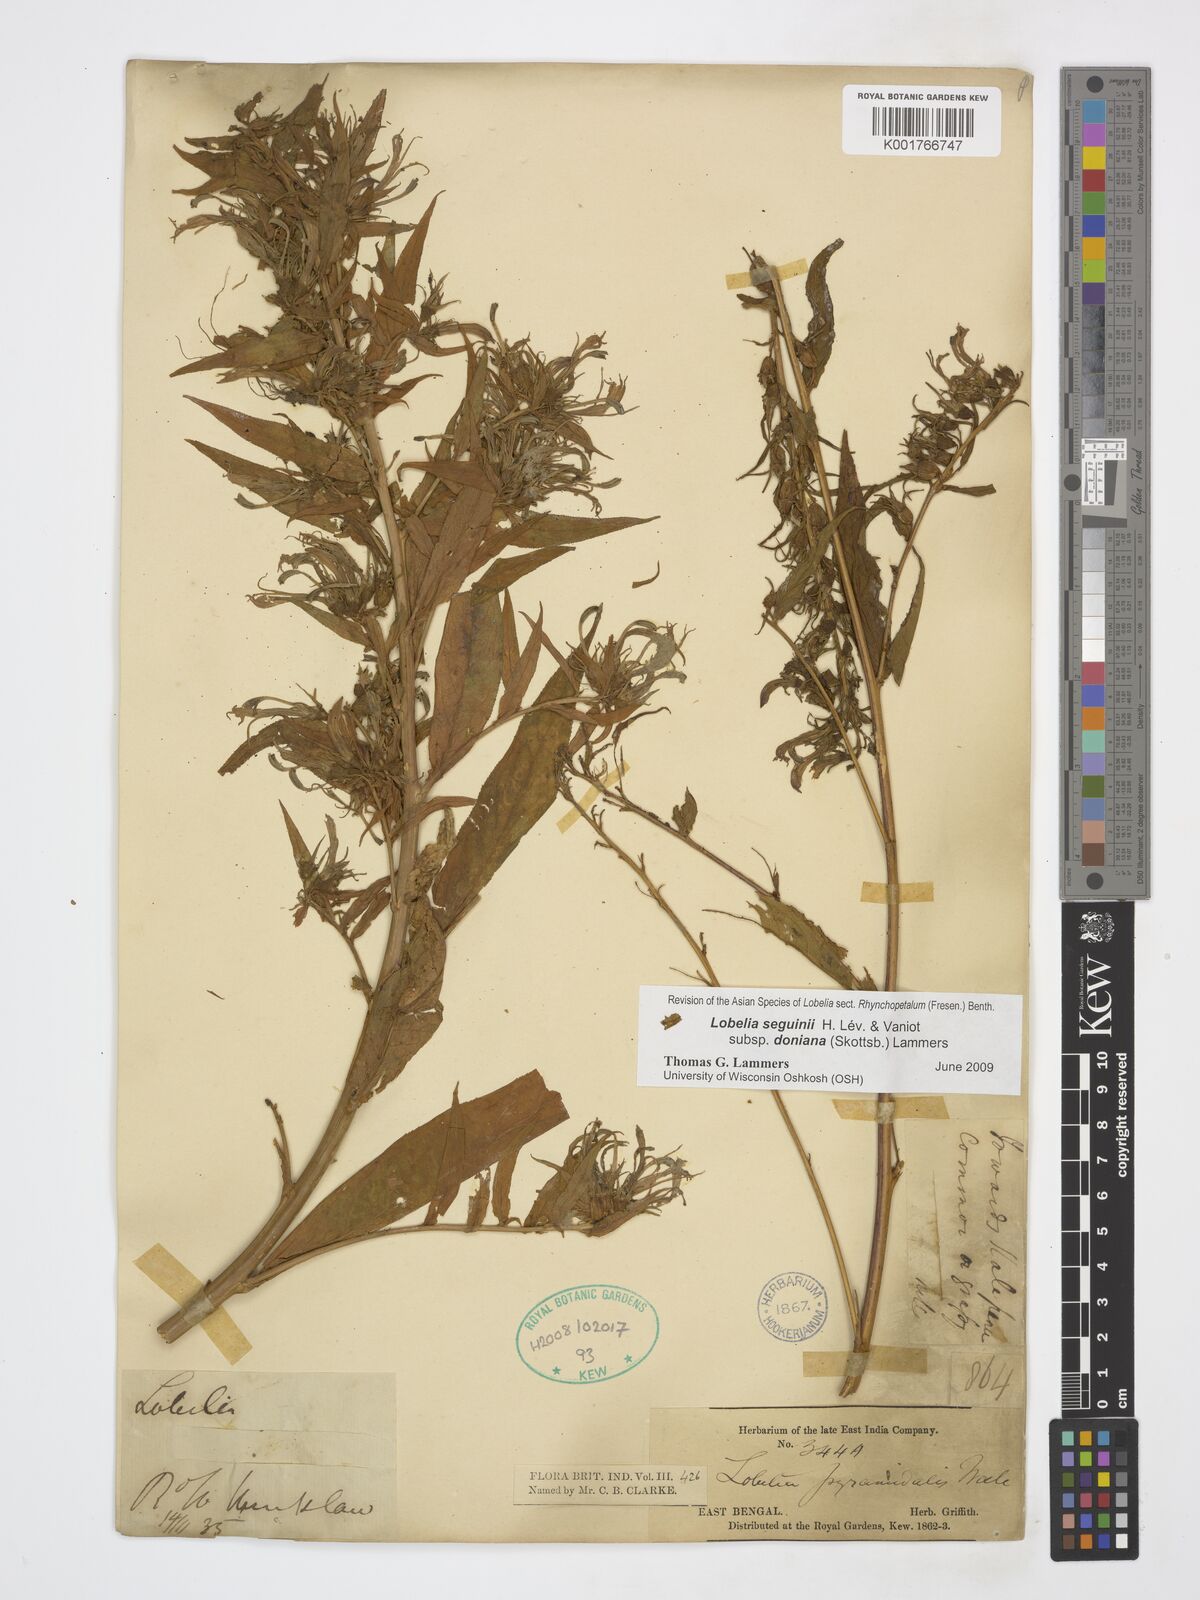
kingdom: Plantae
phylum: Tracheophyta
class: Magnoliopsida
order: Asterales
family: Campanulaceae
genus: Lobelia
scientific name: Lobelia seguinii
